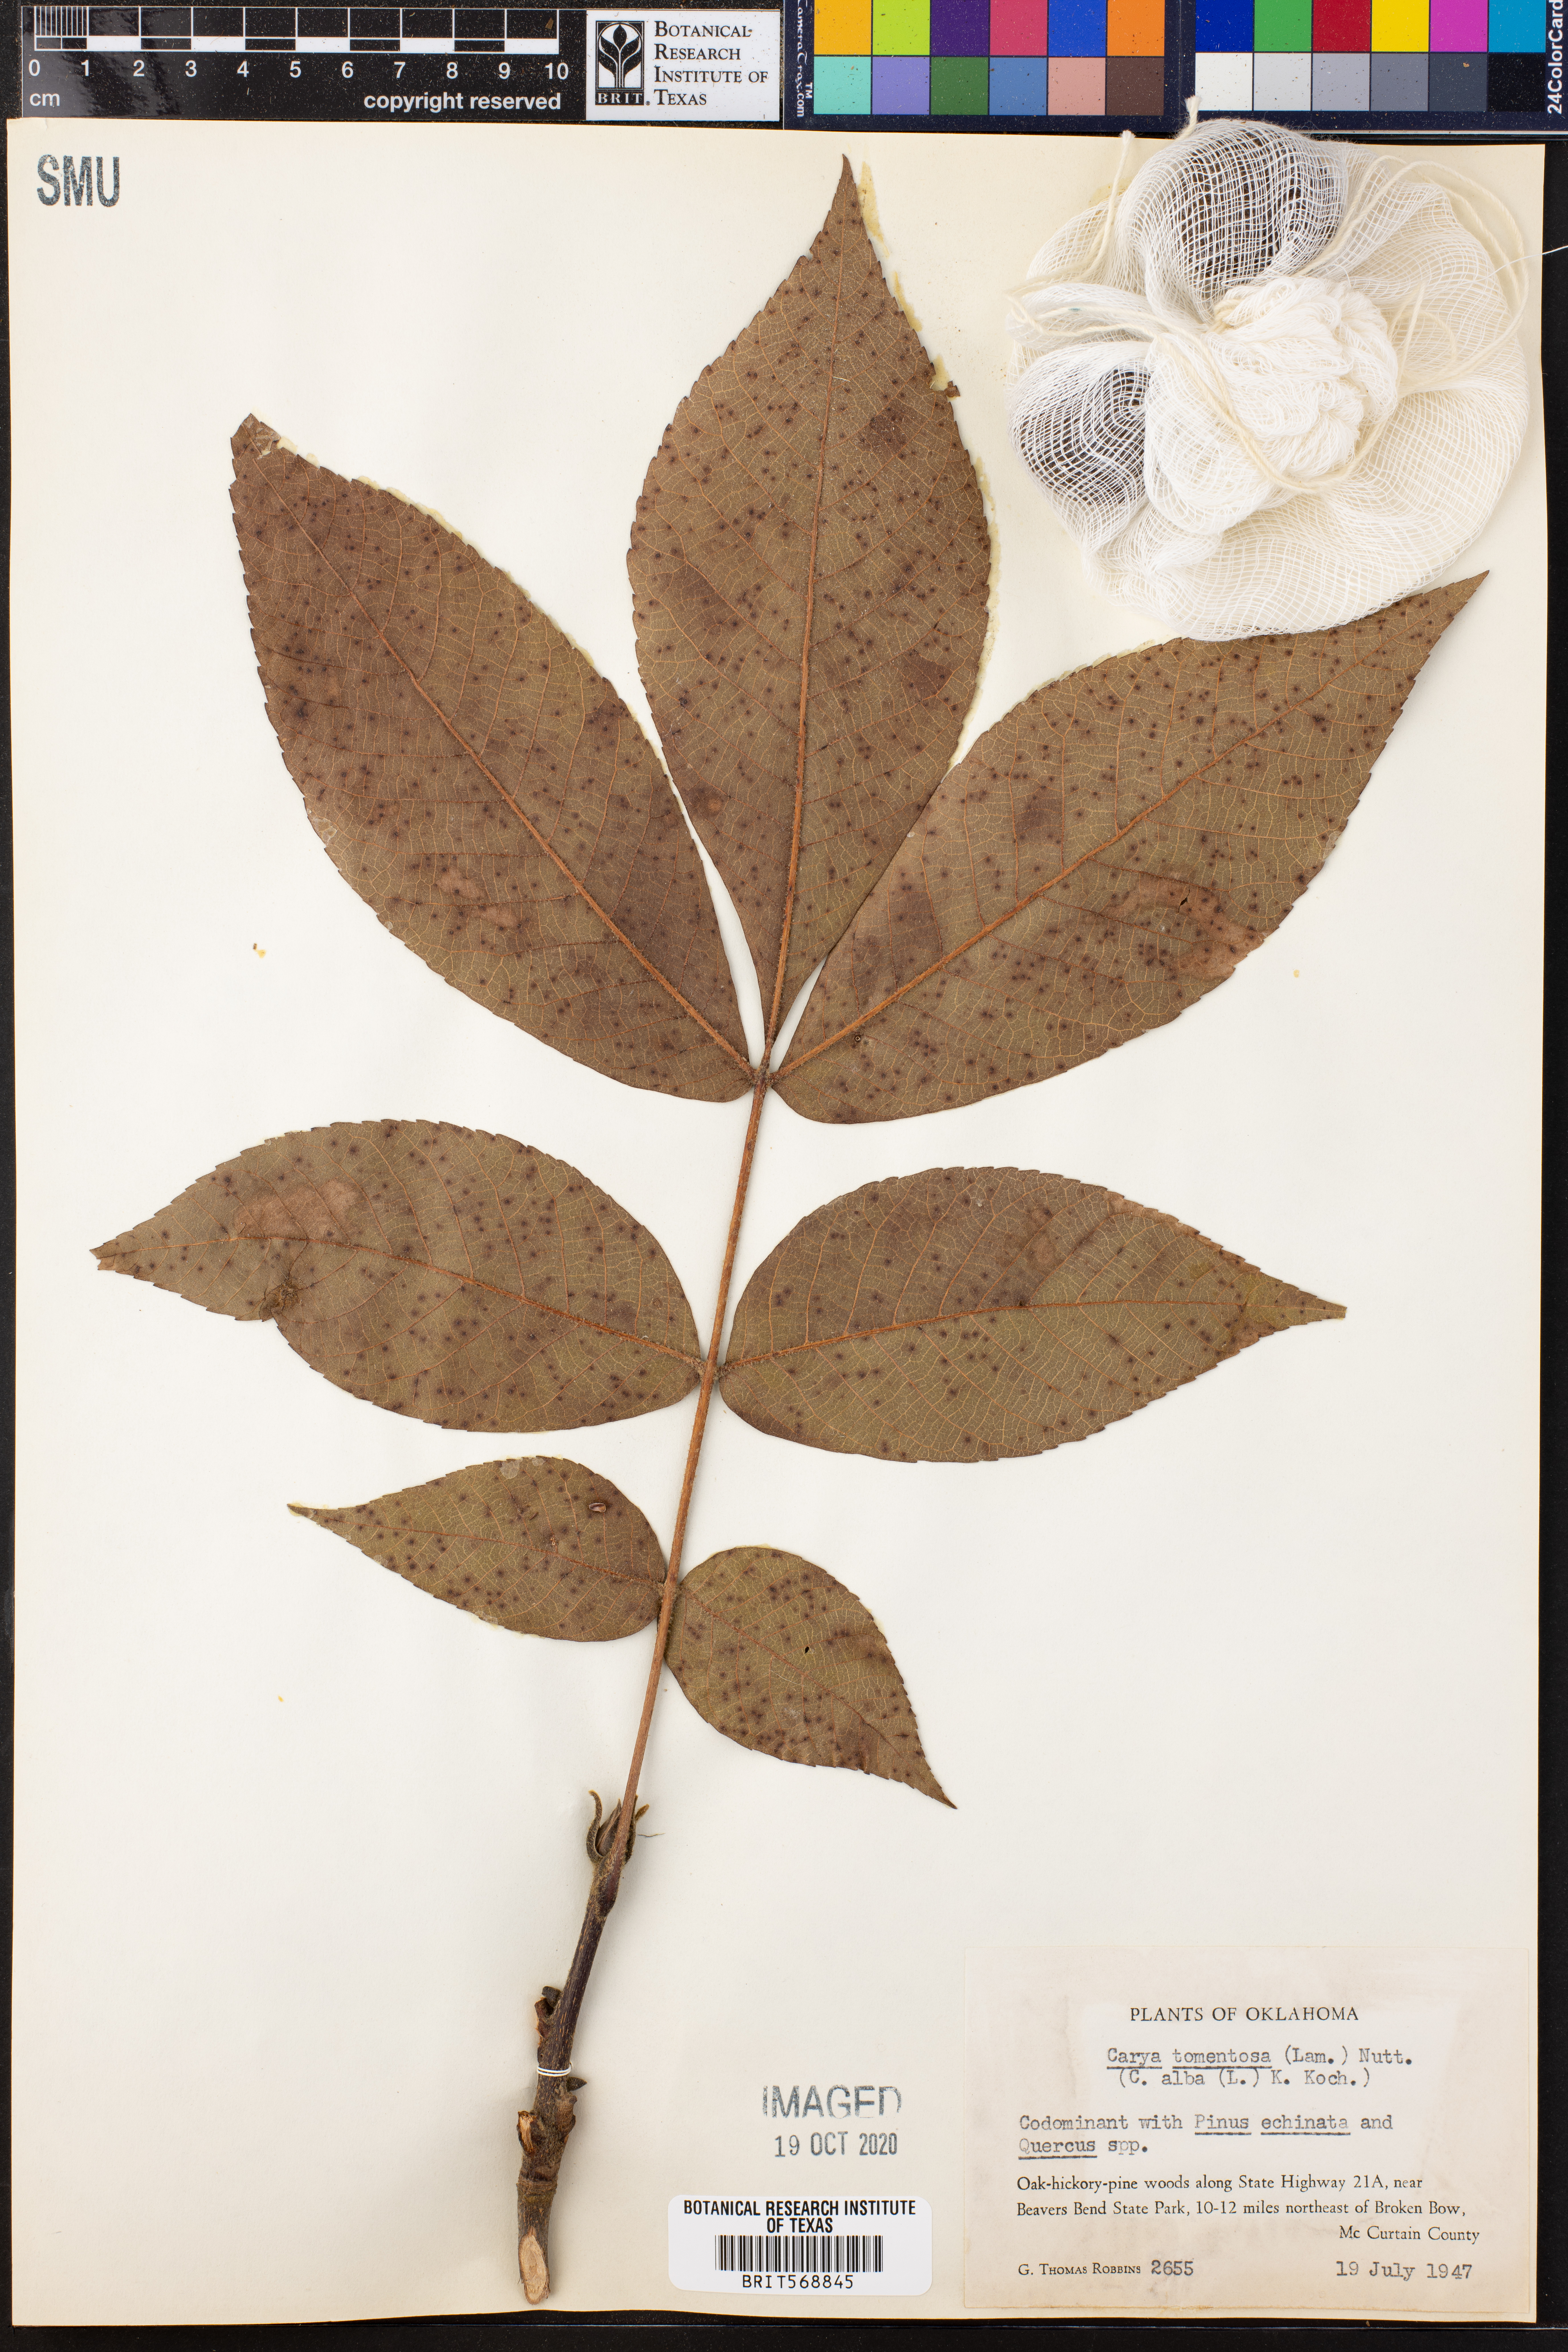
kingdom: Plantae
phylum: Tracheophyta
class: Magnoliopsida
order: Fagales
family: Juglandaceae
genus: Carya
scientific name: Carya alba
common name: Mockernut hickory
